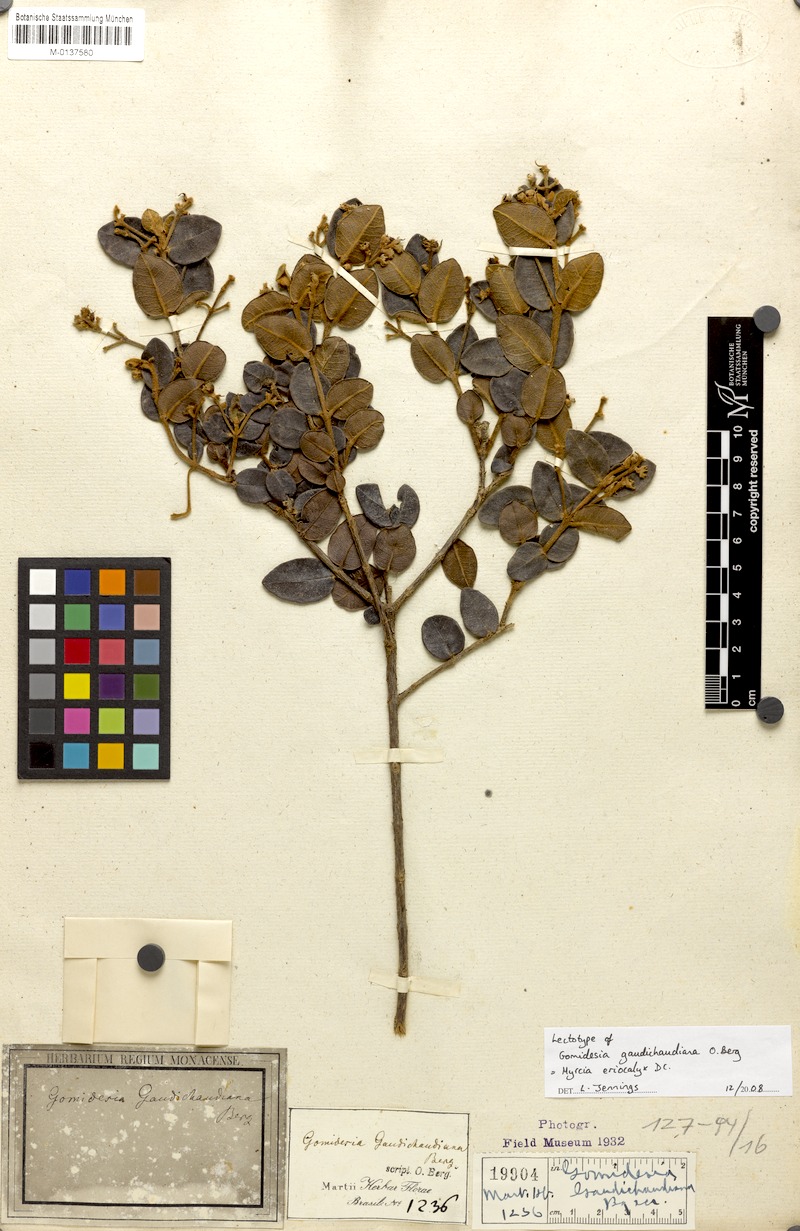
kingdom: Plantae
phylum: Tracheophyta
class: Magnoliopsida
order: Myrtales
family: Myrtaceae
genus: Myrcia
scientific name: Myrcia eriocalyx
